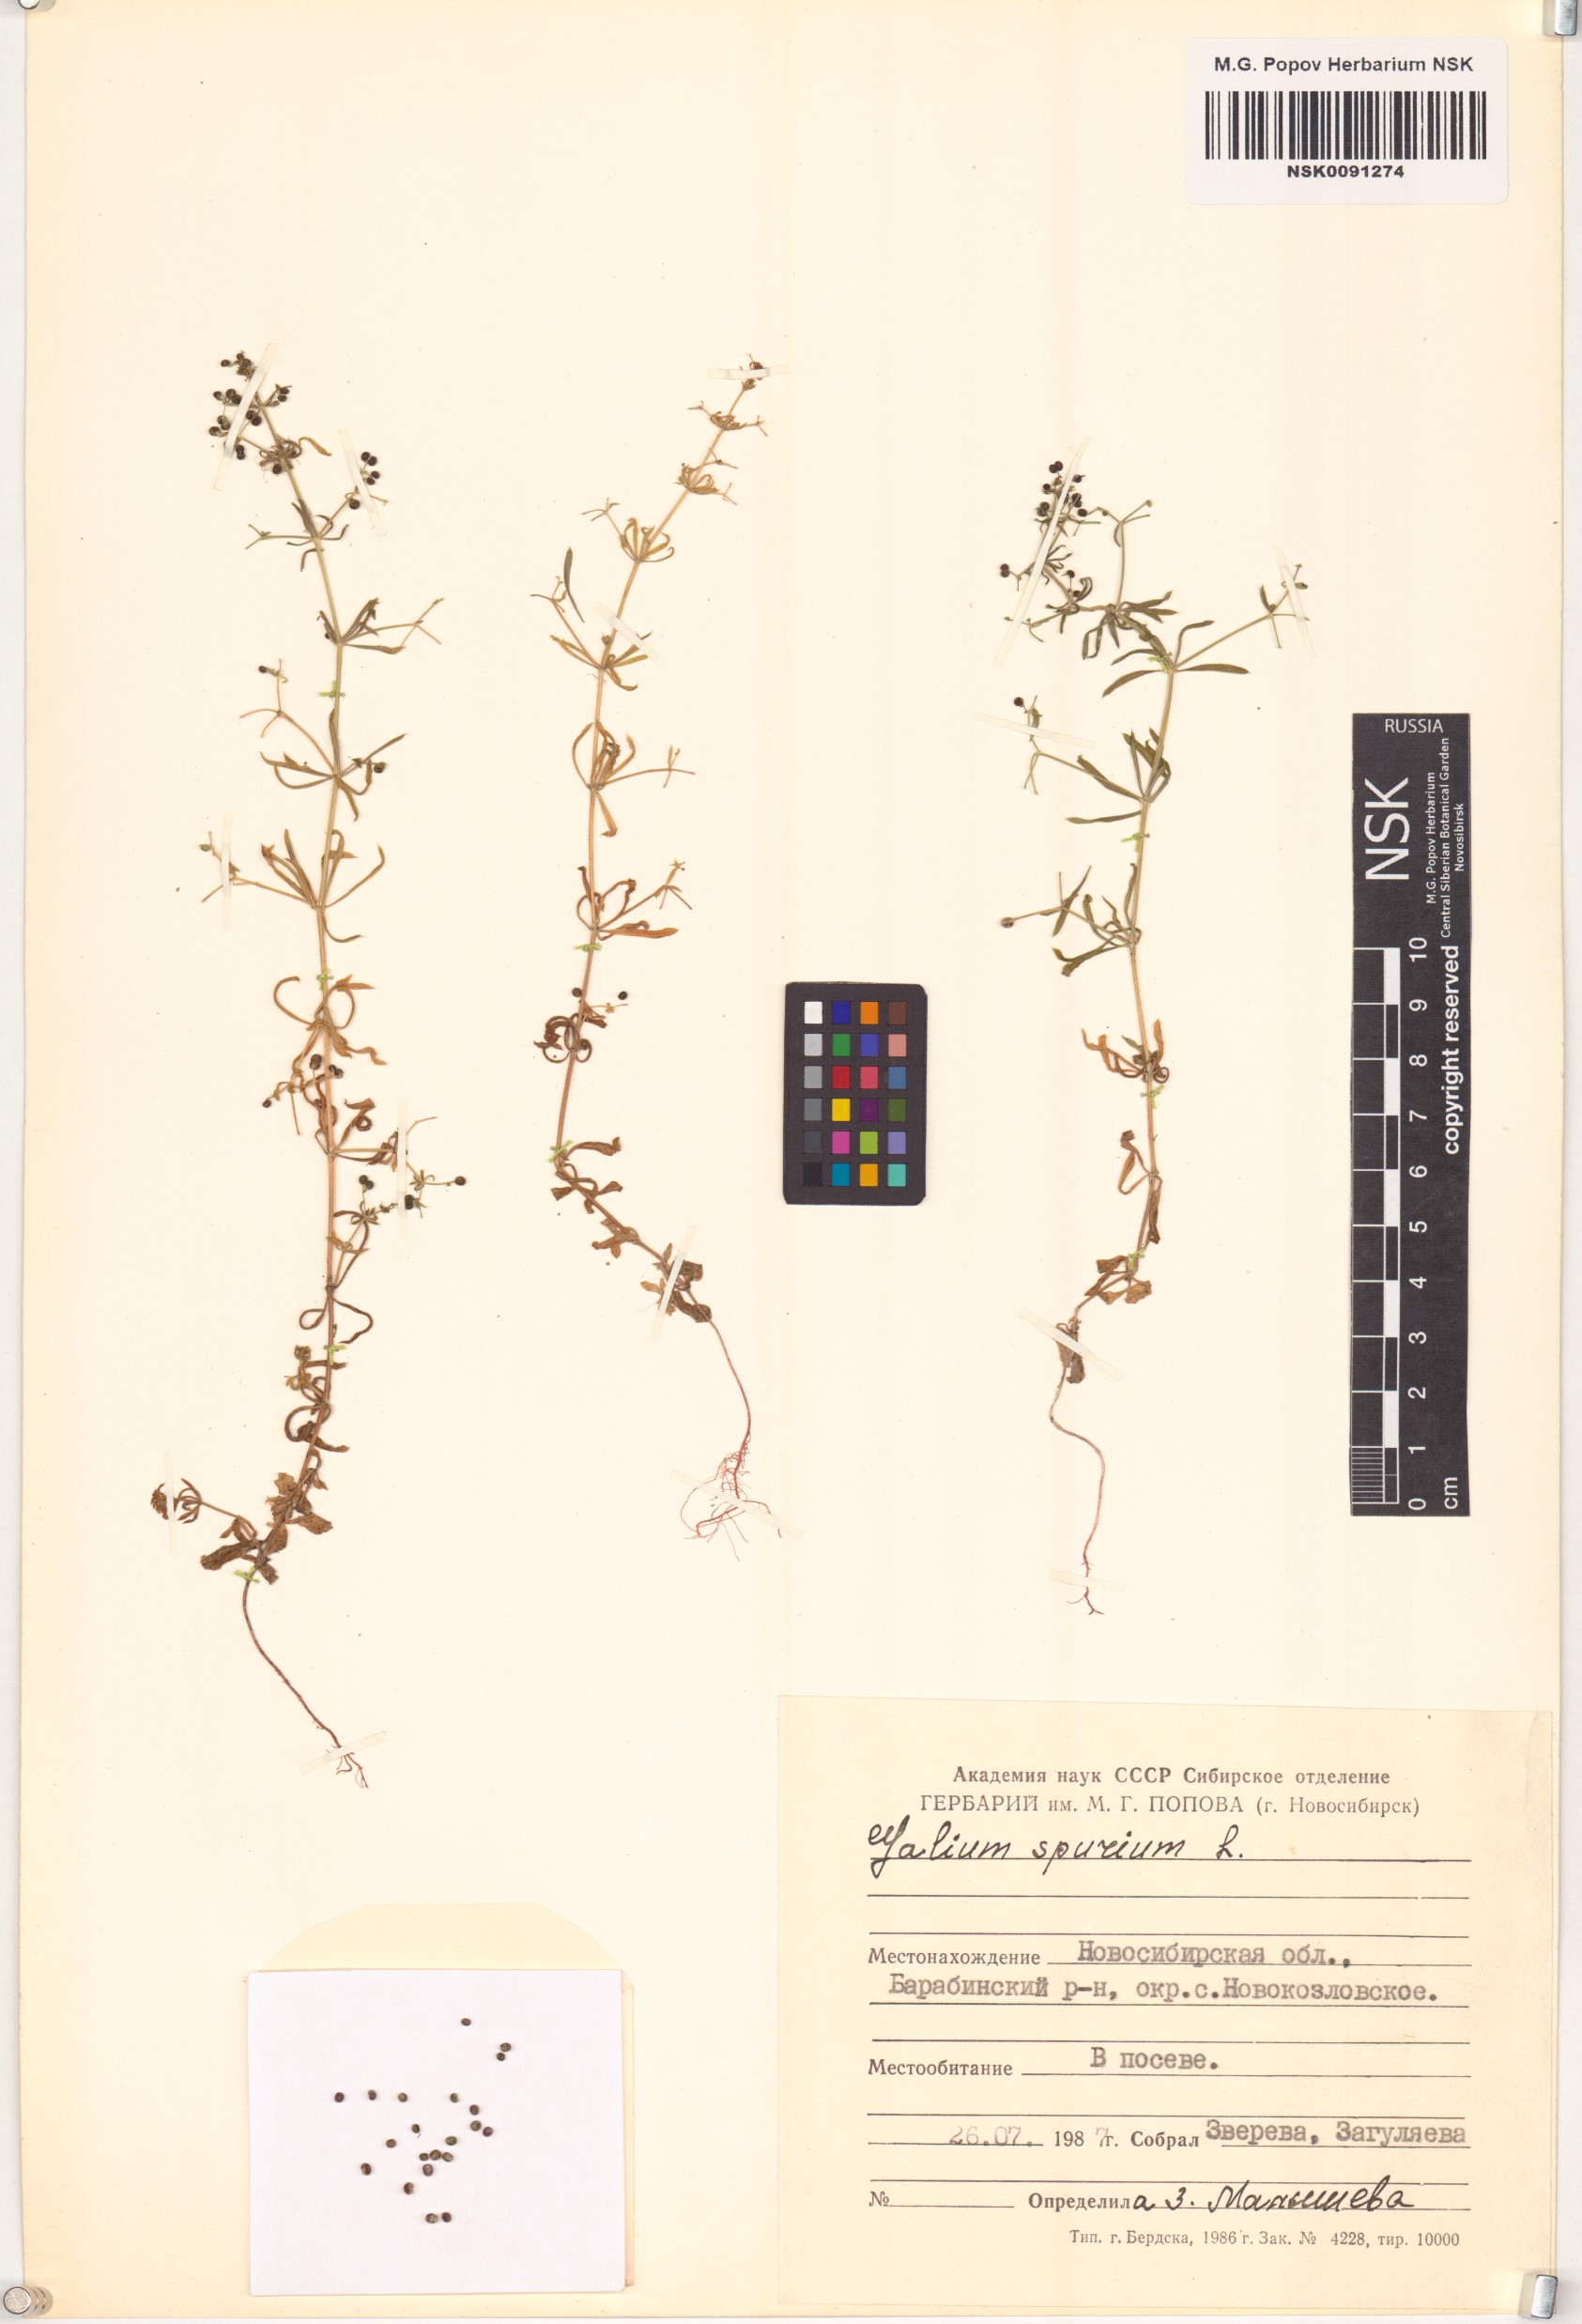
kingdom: Plantae
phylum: Tracheophyta
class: Magnoliopsida
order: Gentianales
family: Rubiaceae
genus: Galium
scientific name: Galium spurium
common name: False cleavers
